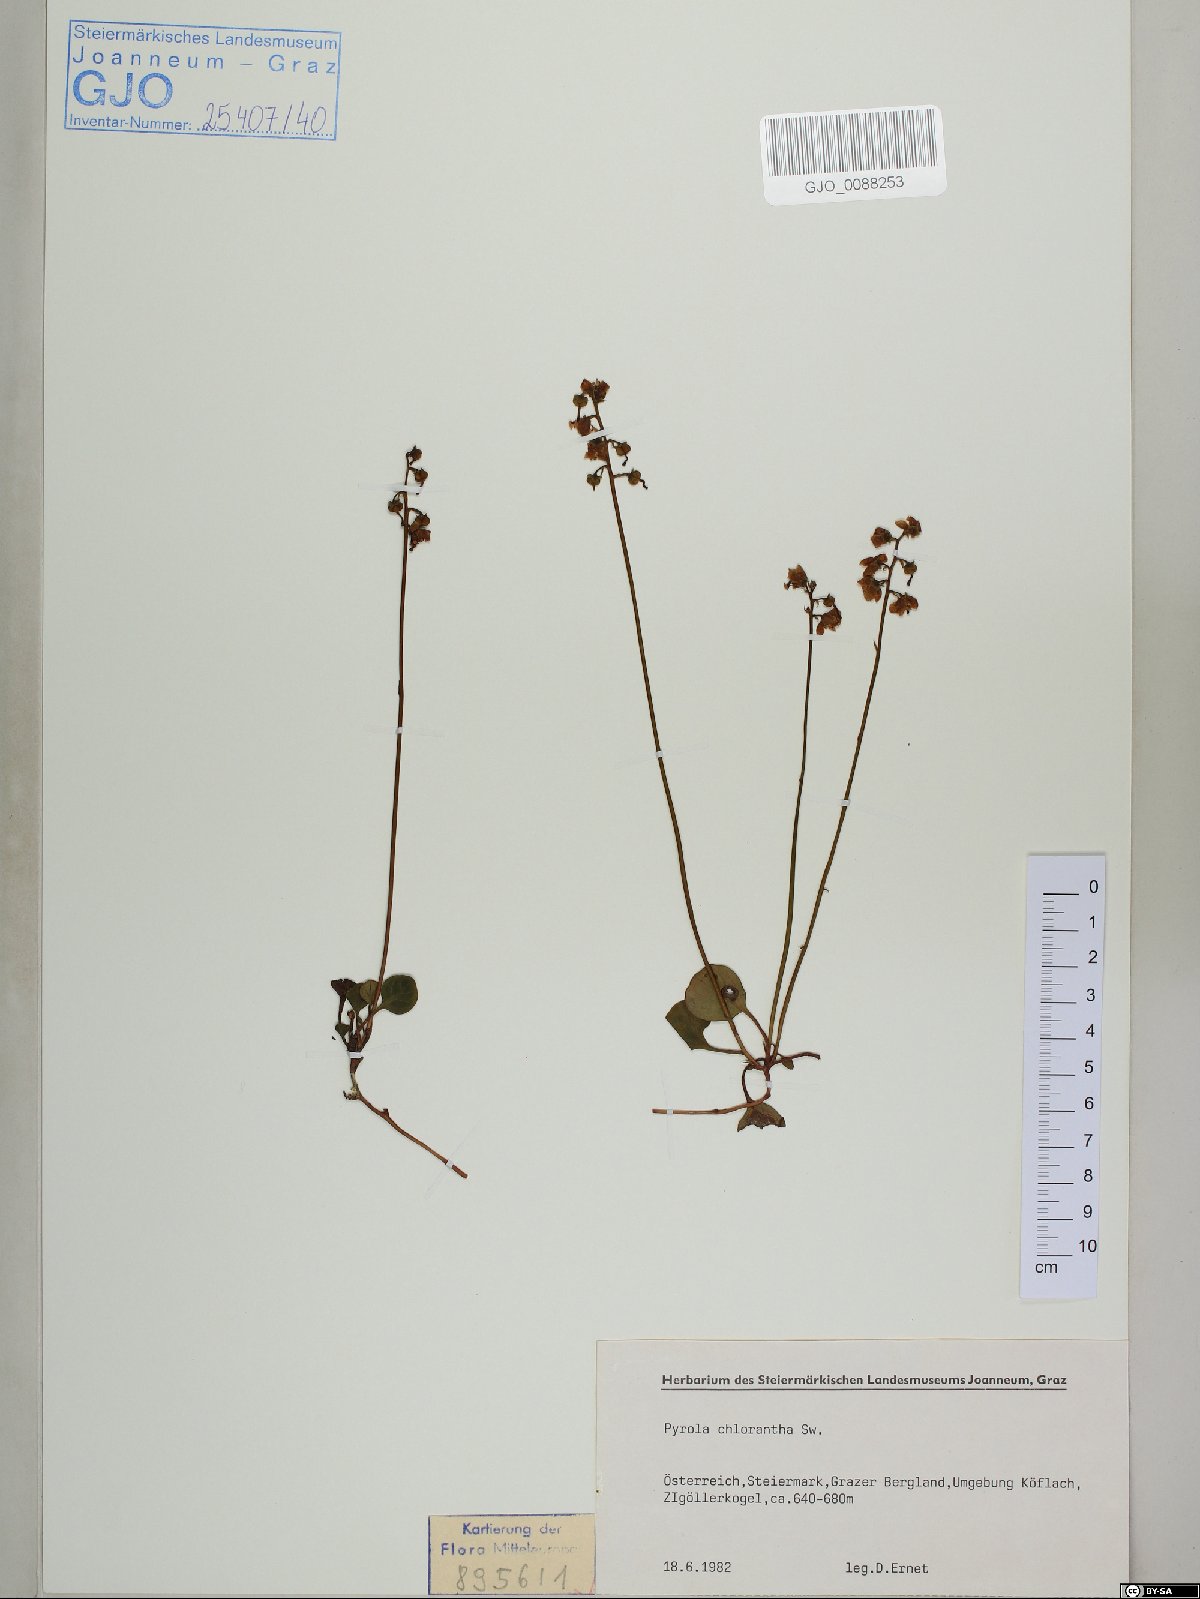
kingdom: Plantae
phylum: Tracheophyta
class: Magnoliopsida
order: Ericales
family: Ericaceae
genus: Pyrola
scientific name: Pyrola chlorantha
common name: Green wintergreen
